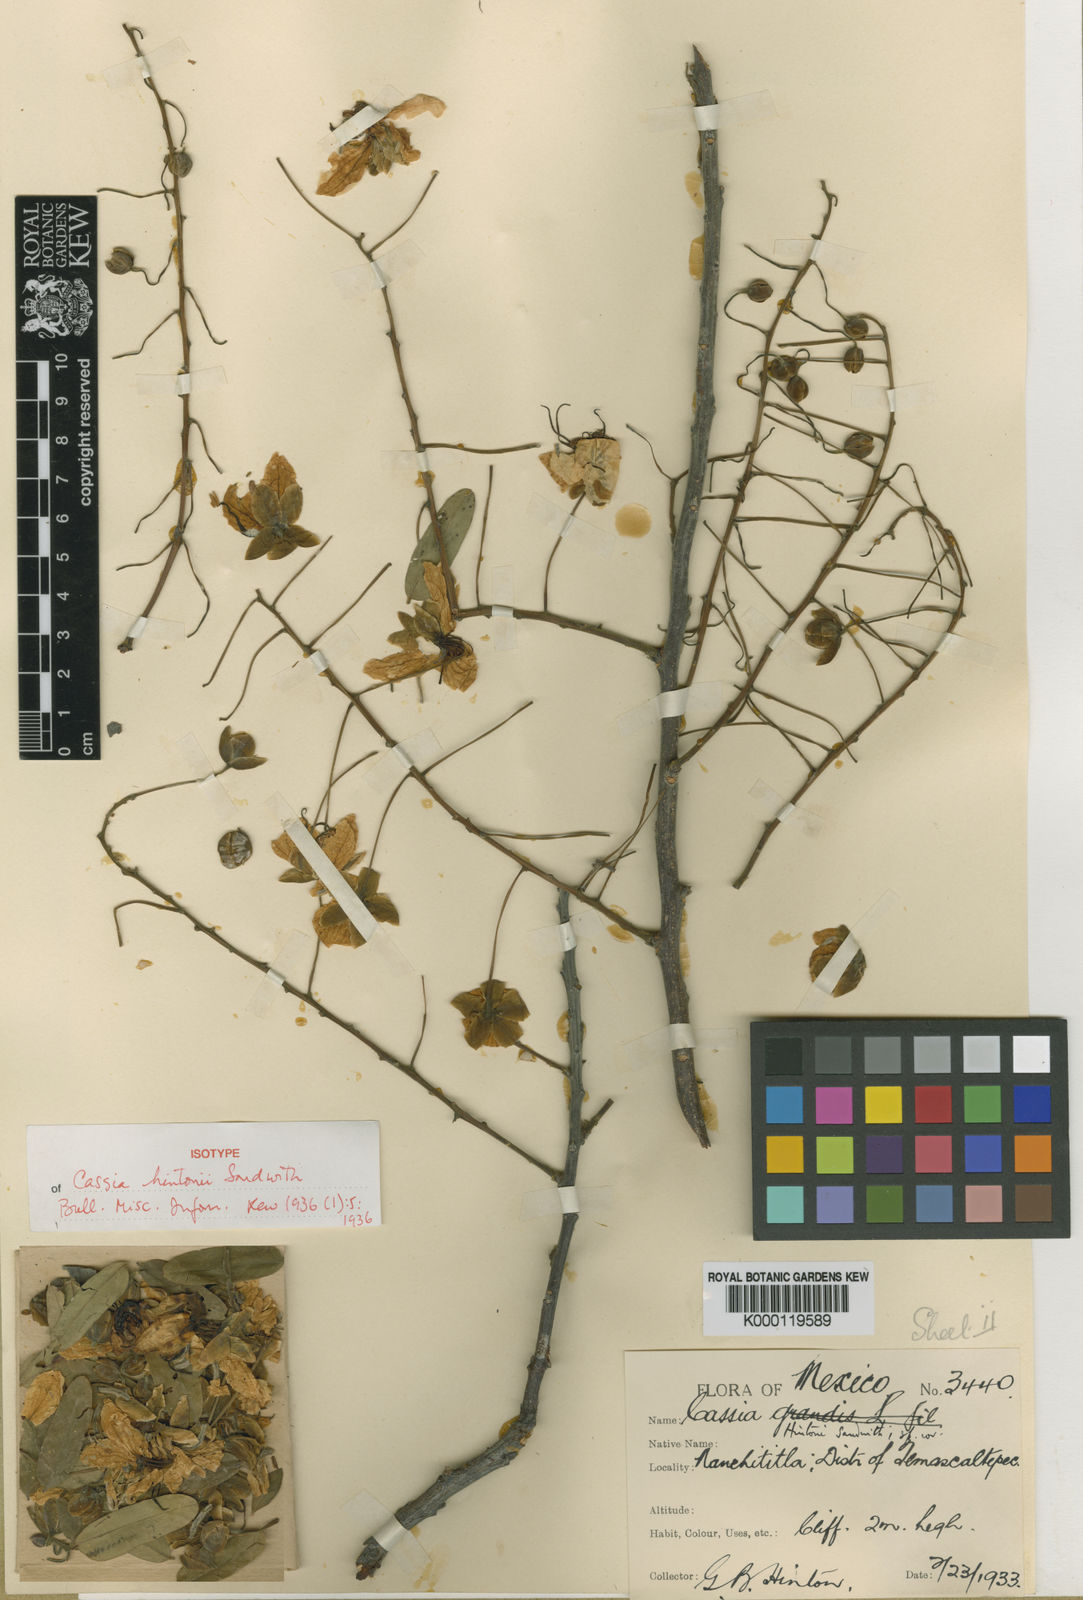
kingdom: Plantae
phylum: Tracheophyta
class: Magnoliopsida
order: Fabales
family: Fabaceae
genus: Cassia
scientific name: Cassia hintonii
